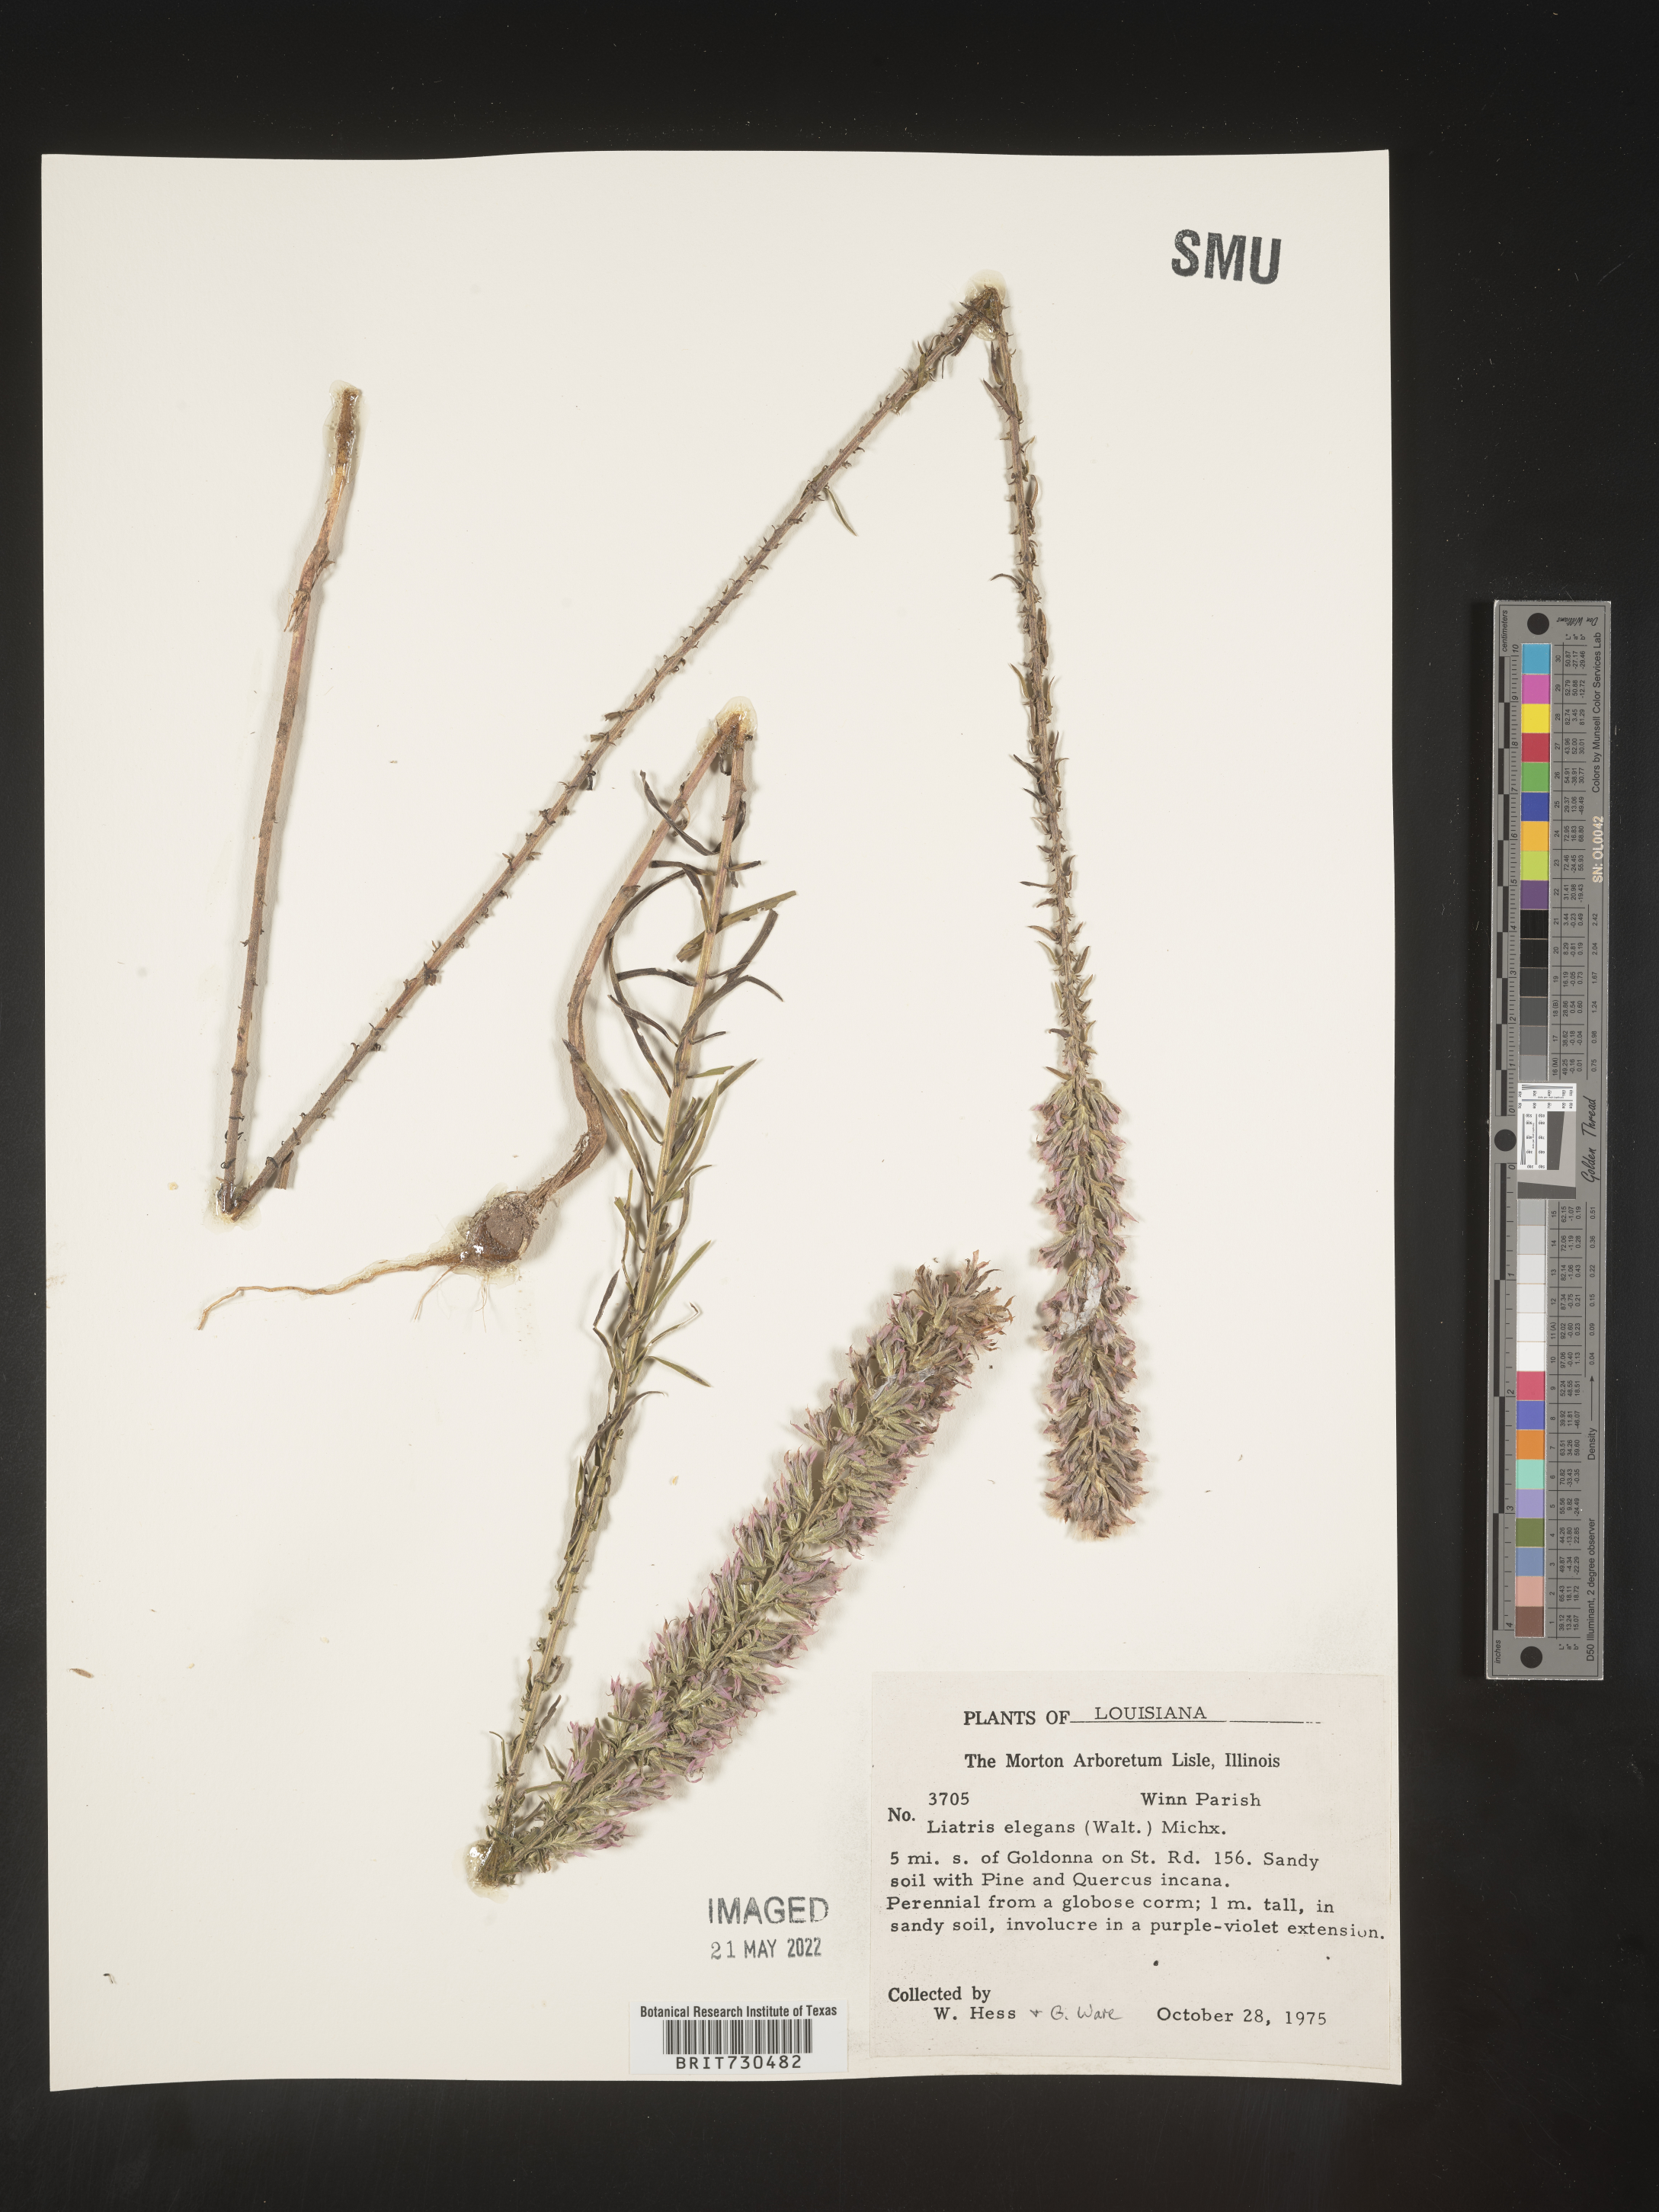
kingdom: Plantae
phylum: Tracheophyta
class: Magnoliopsida
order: Asterales
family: Asteraceae
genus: Liatris
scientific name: Liatris elegans
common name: Pinkscale gayfeather
